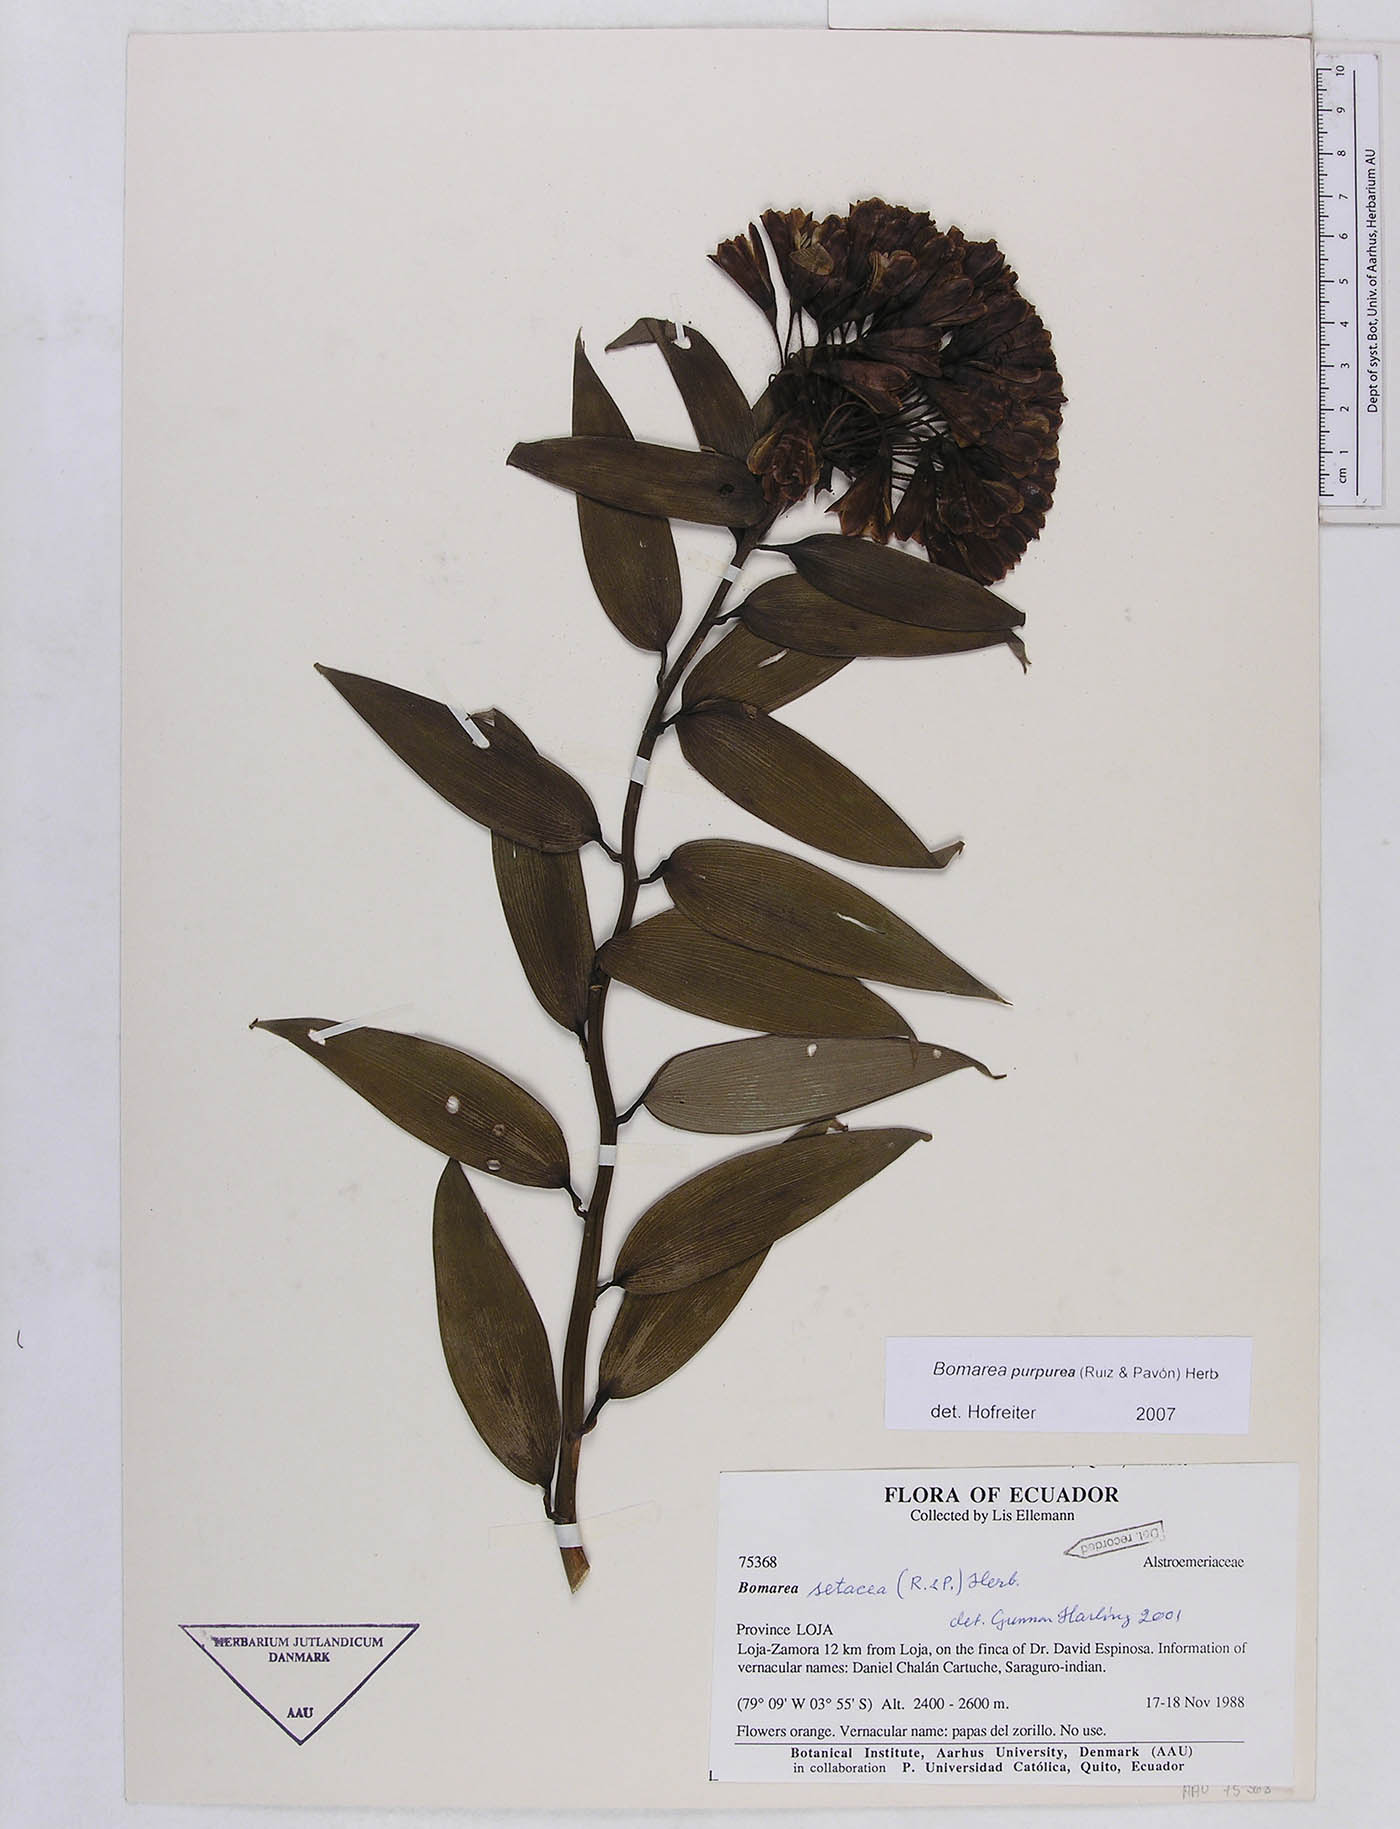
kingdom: Plantae
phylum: Tracheophyta
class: Liliopsida
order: Liliales
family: Alstroemeriaceae
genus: Bomarea
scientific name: Bomarea purpurea
